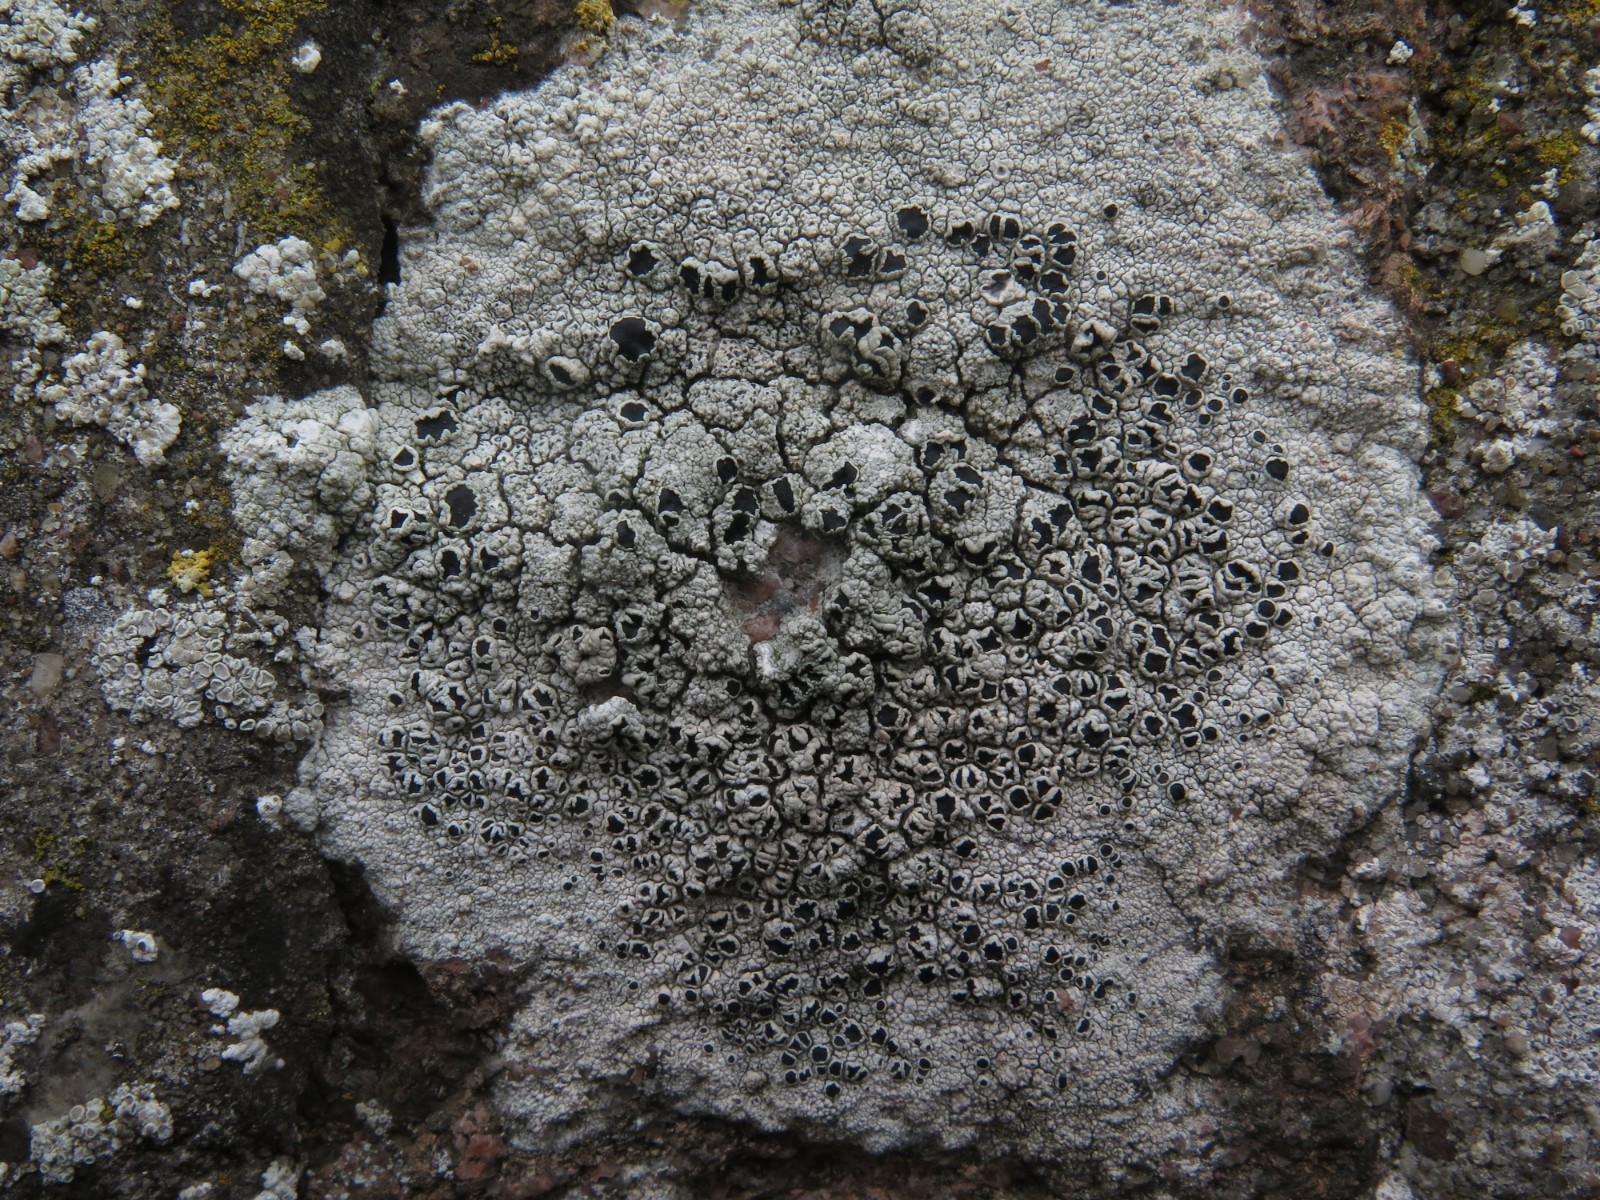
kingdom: Fungi
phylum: Ascomycota
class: Lecanoromycetes
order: Lecanorales
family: Tephromelataceae
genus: Tephromela
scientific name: Tephromela atra
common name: sortfrugtet kantskivelav
